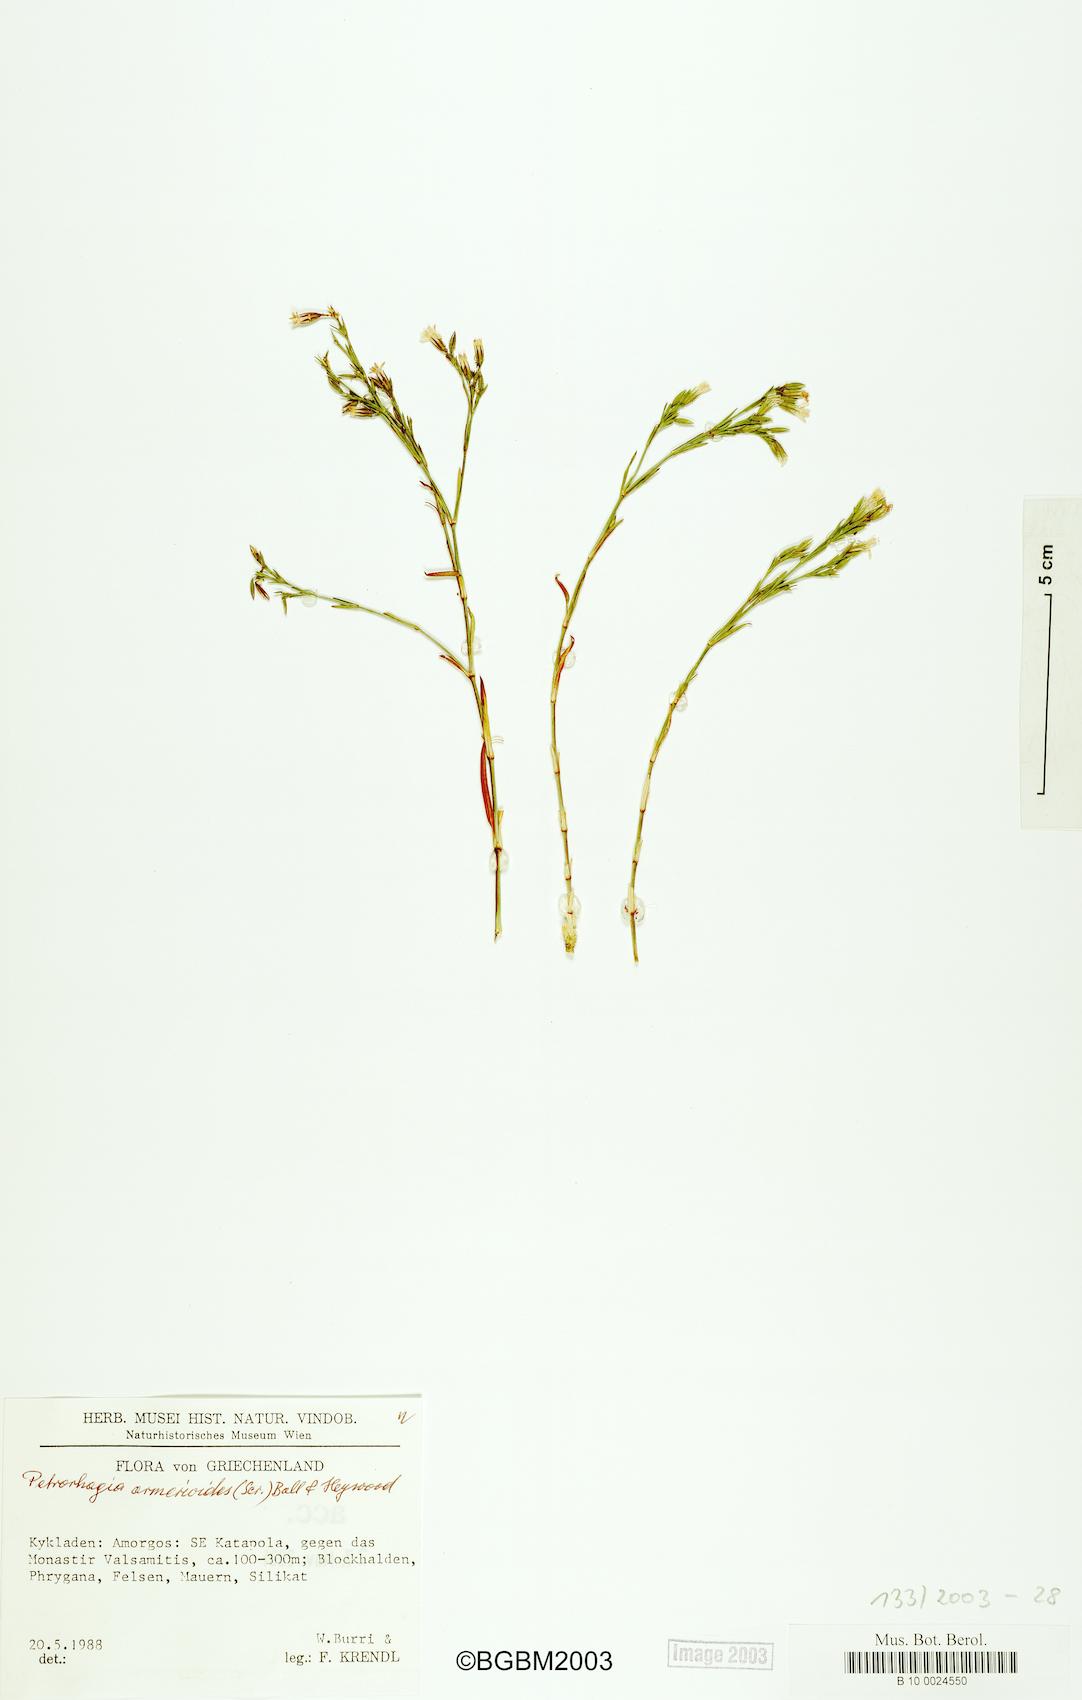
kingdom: Plantae
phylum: Tracheophyta
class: Magnoliopsida
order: Caryophyllales
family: Caryophyllaceae
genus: Dianthus
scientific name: Dianthus tunicoides
